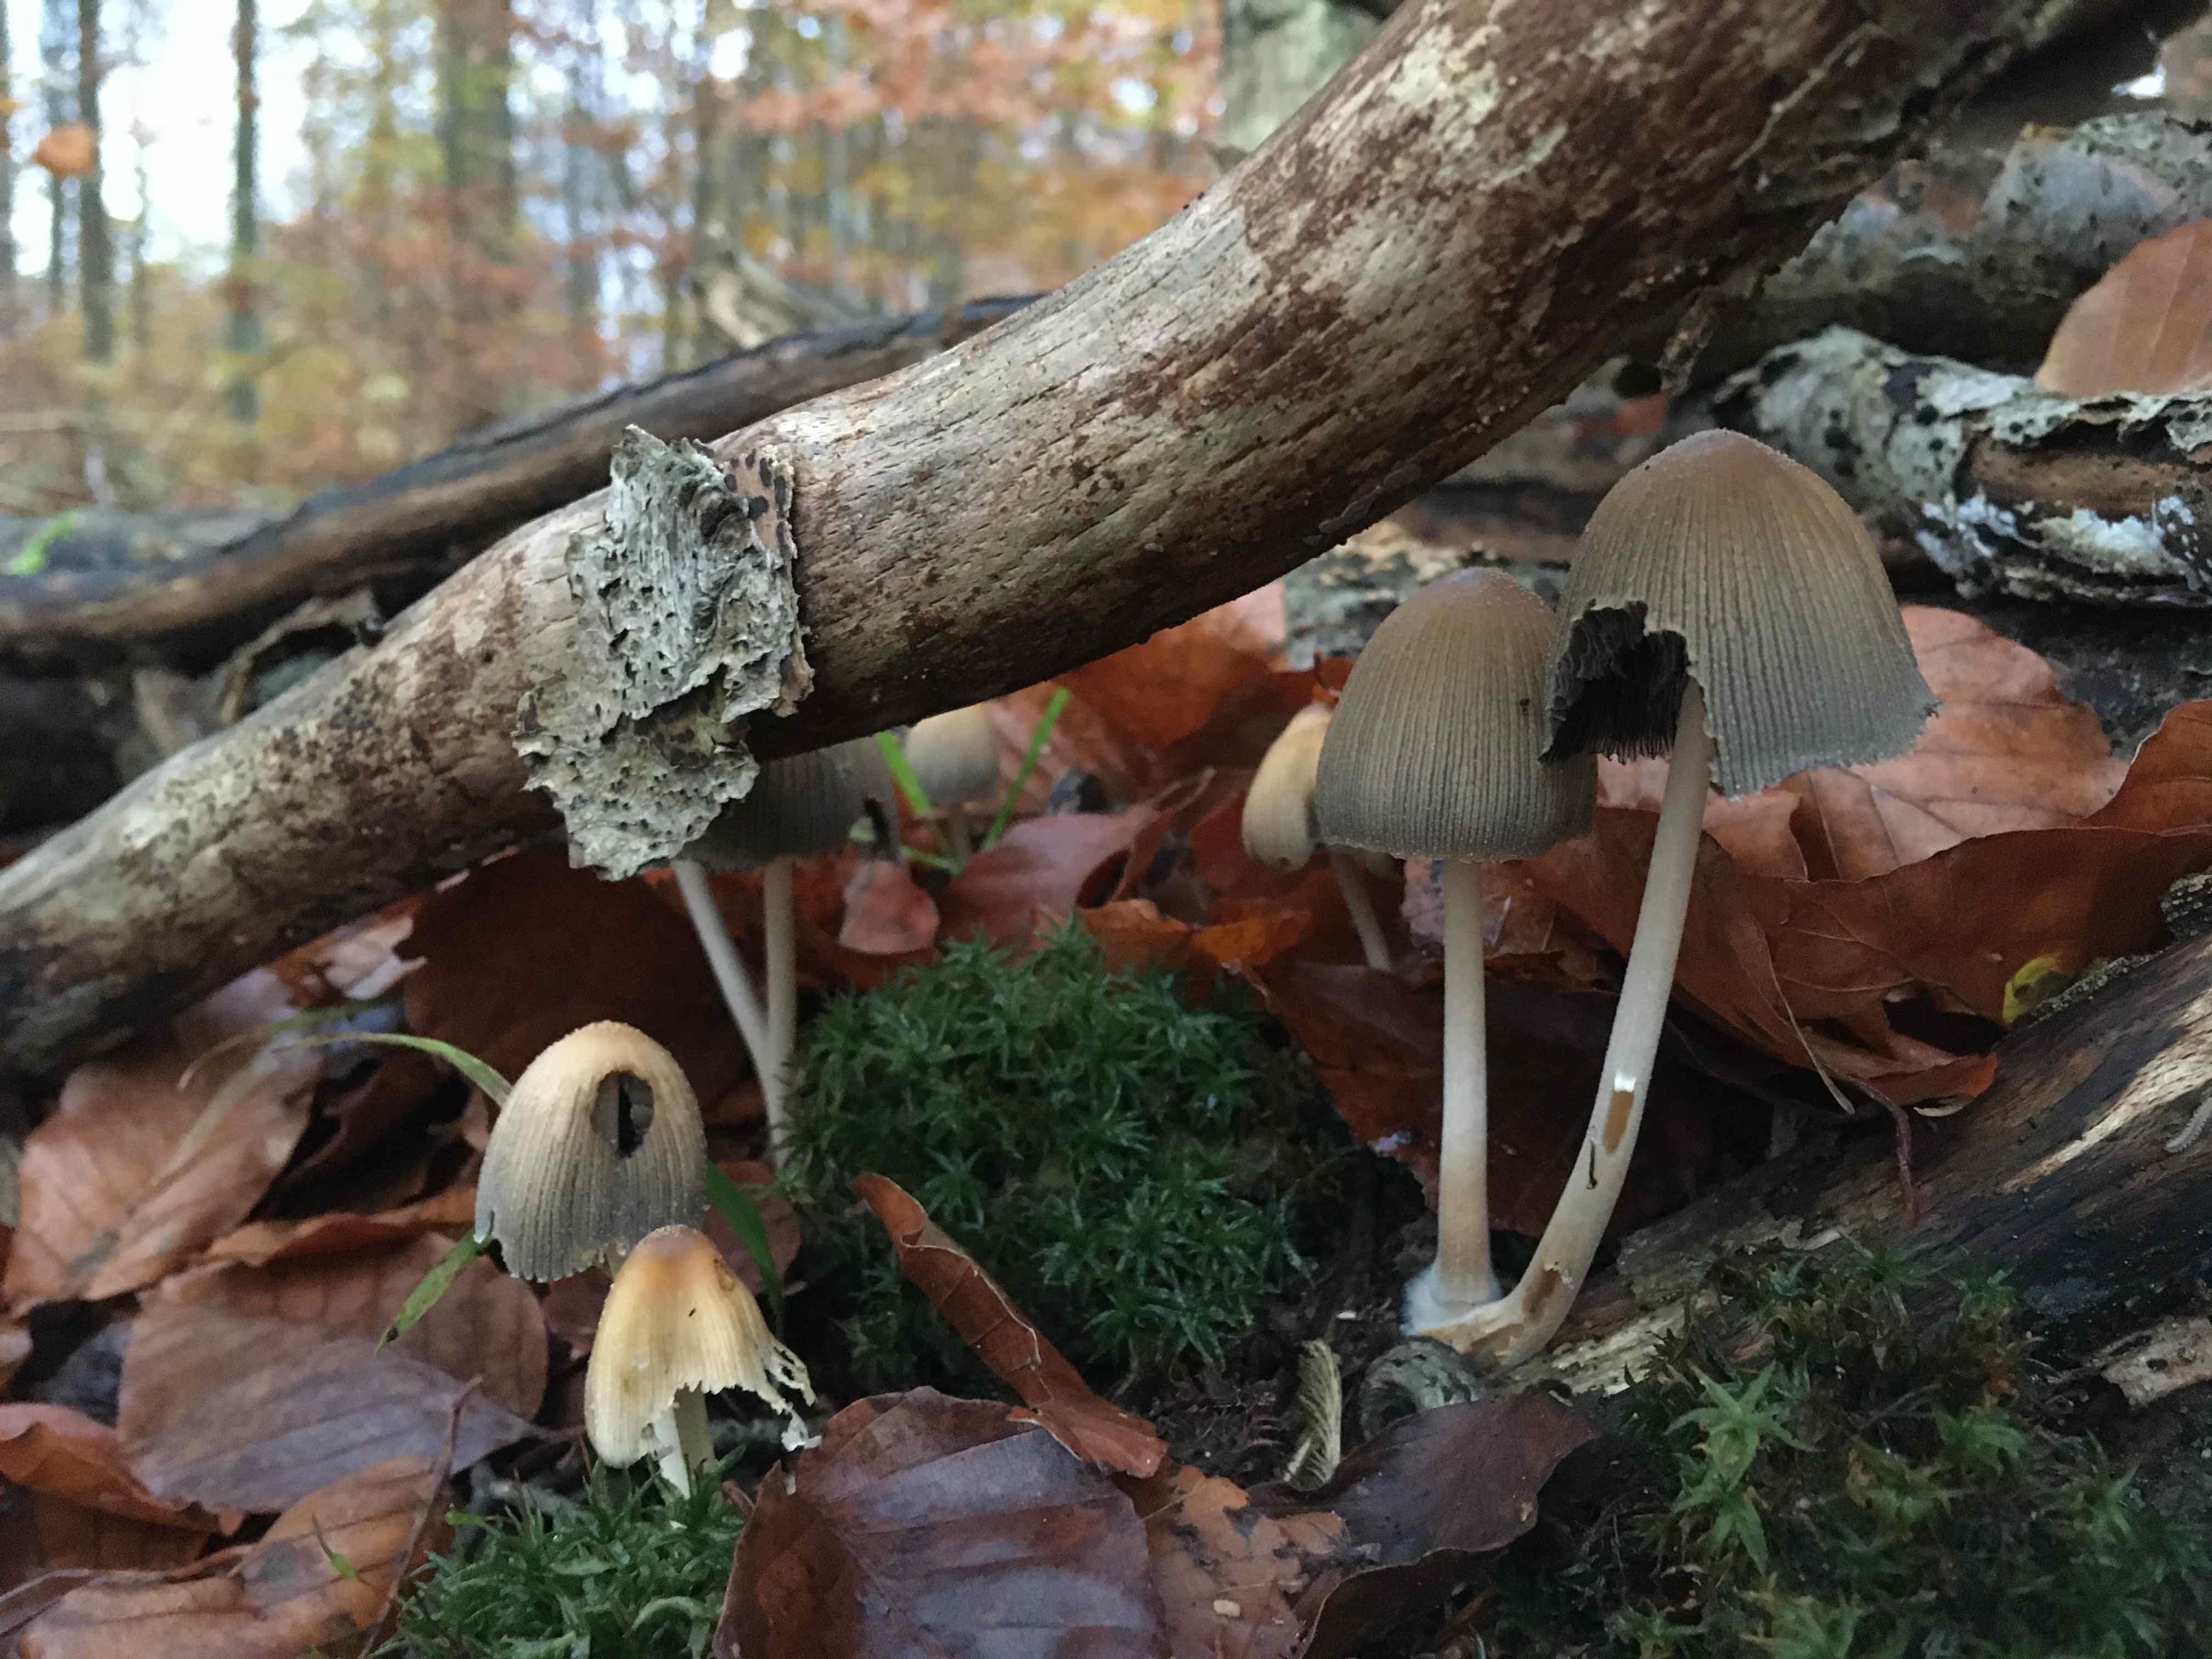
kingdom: Fungi
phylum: Basidiomycota
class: Agaricomycetes
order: Agaricales
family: Psathyrellaceae
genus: Coprinellus
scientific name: Coprinellus micaceus
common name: glimmer-blækhat
